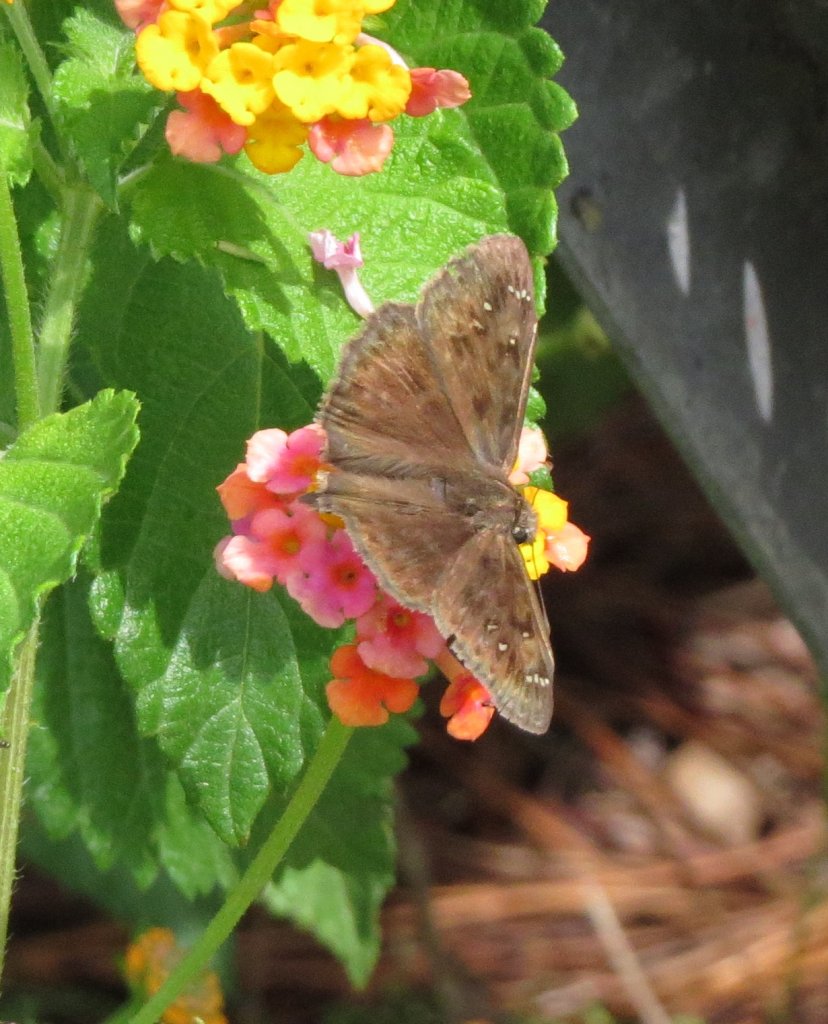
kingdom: Animalia
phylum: Arthropoda
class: Insecta
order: Lepidoptera
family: Hesperiidae
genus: Gesta
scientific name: Gesta
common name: Horace's Duskywing
